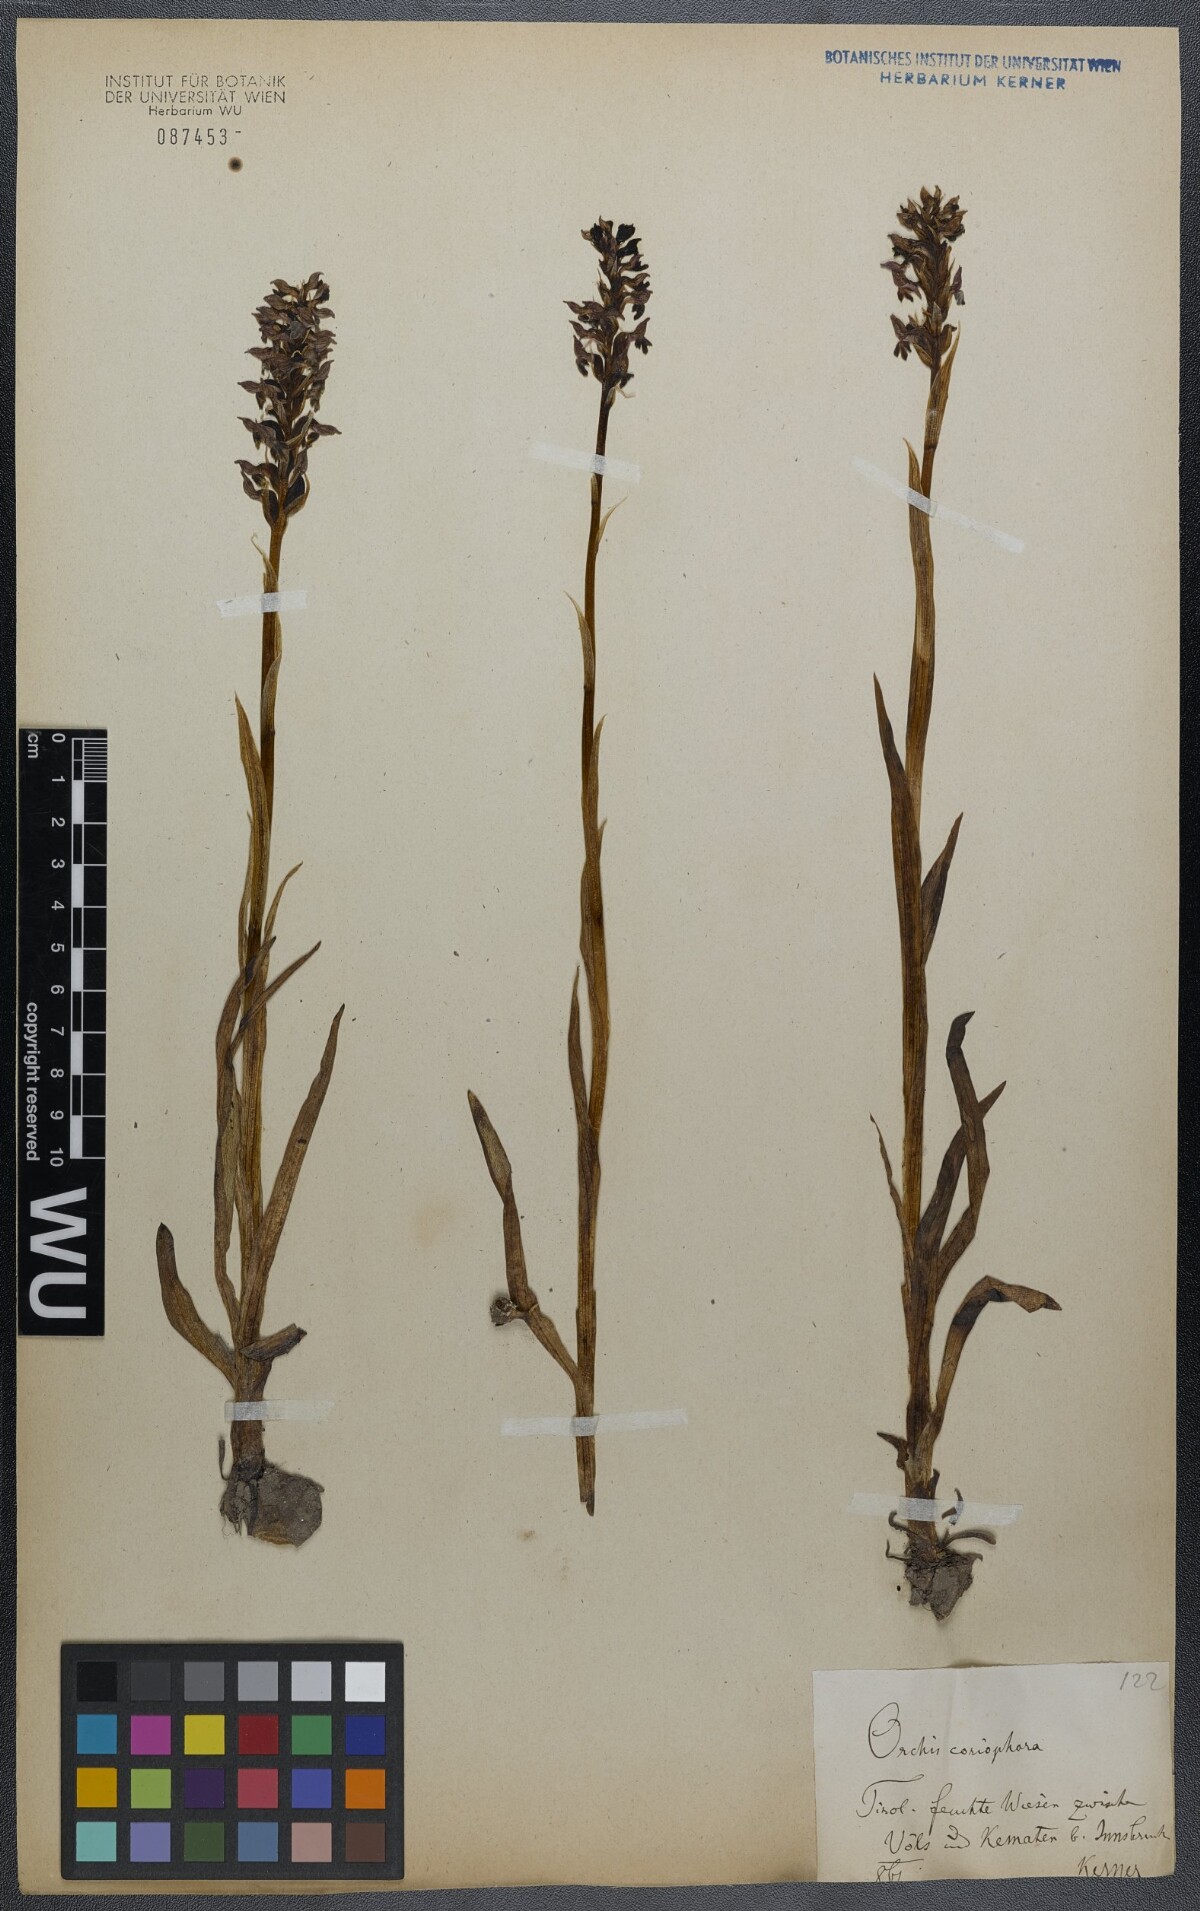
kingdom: Plantae
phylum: Tracheophyta
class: Liliopsida
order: Asparagales
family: Orchidaceae
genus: Anacamptis
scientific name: Anacamptis coriophora
